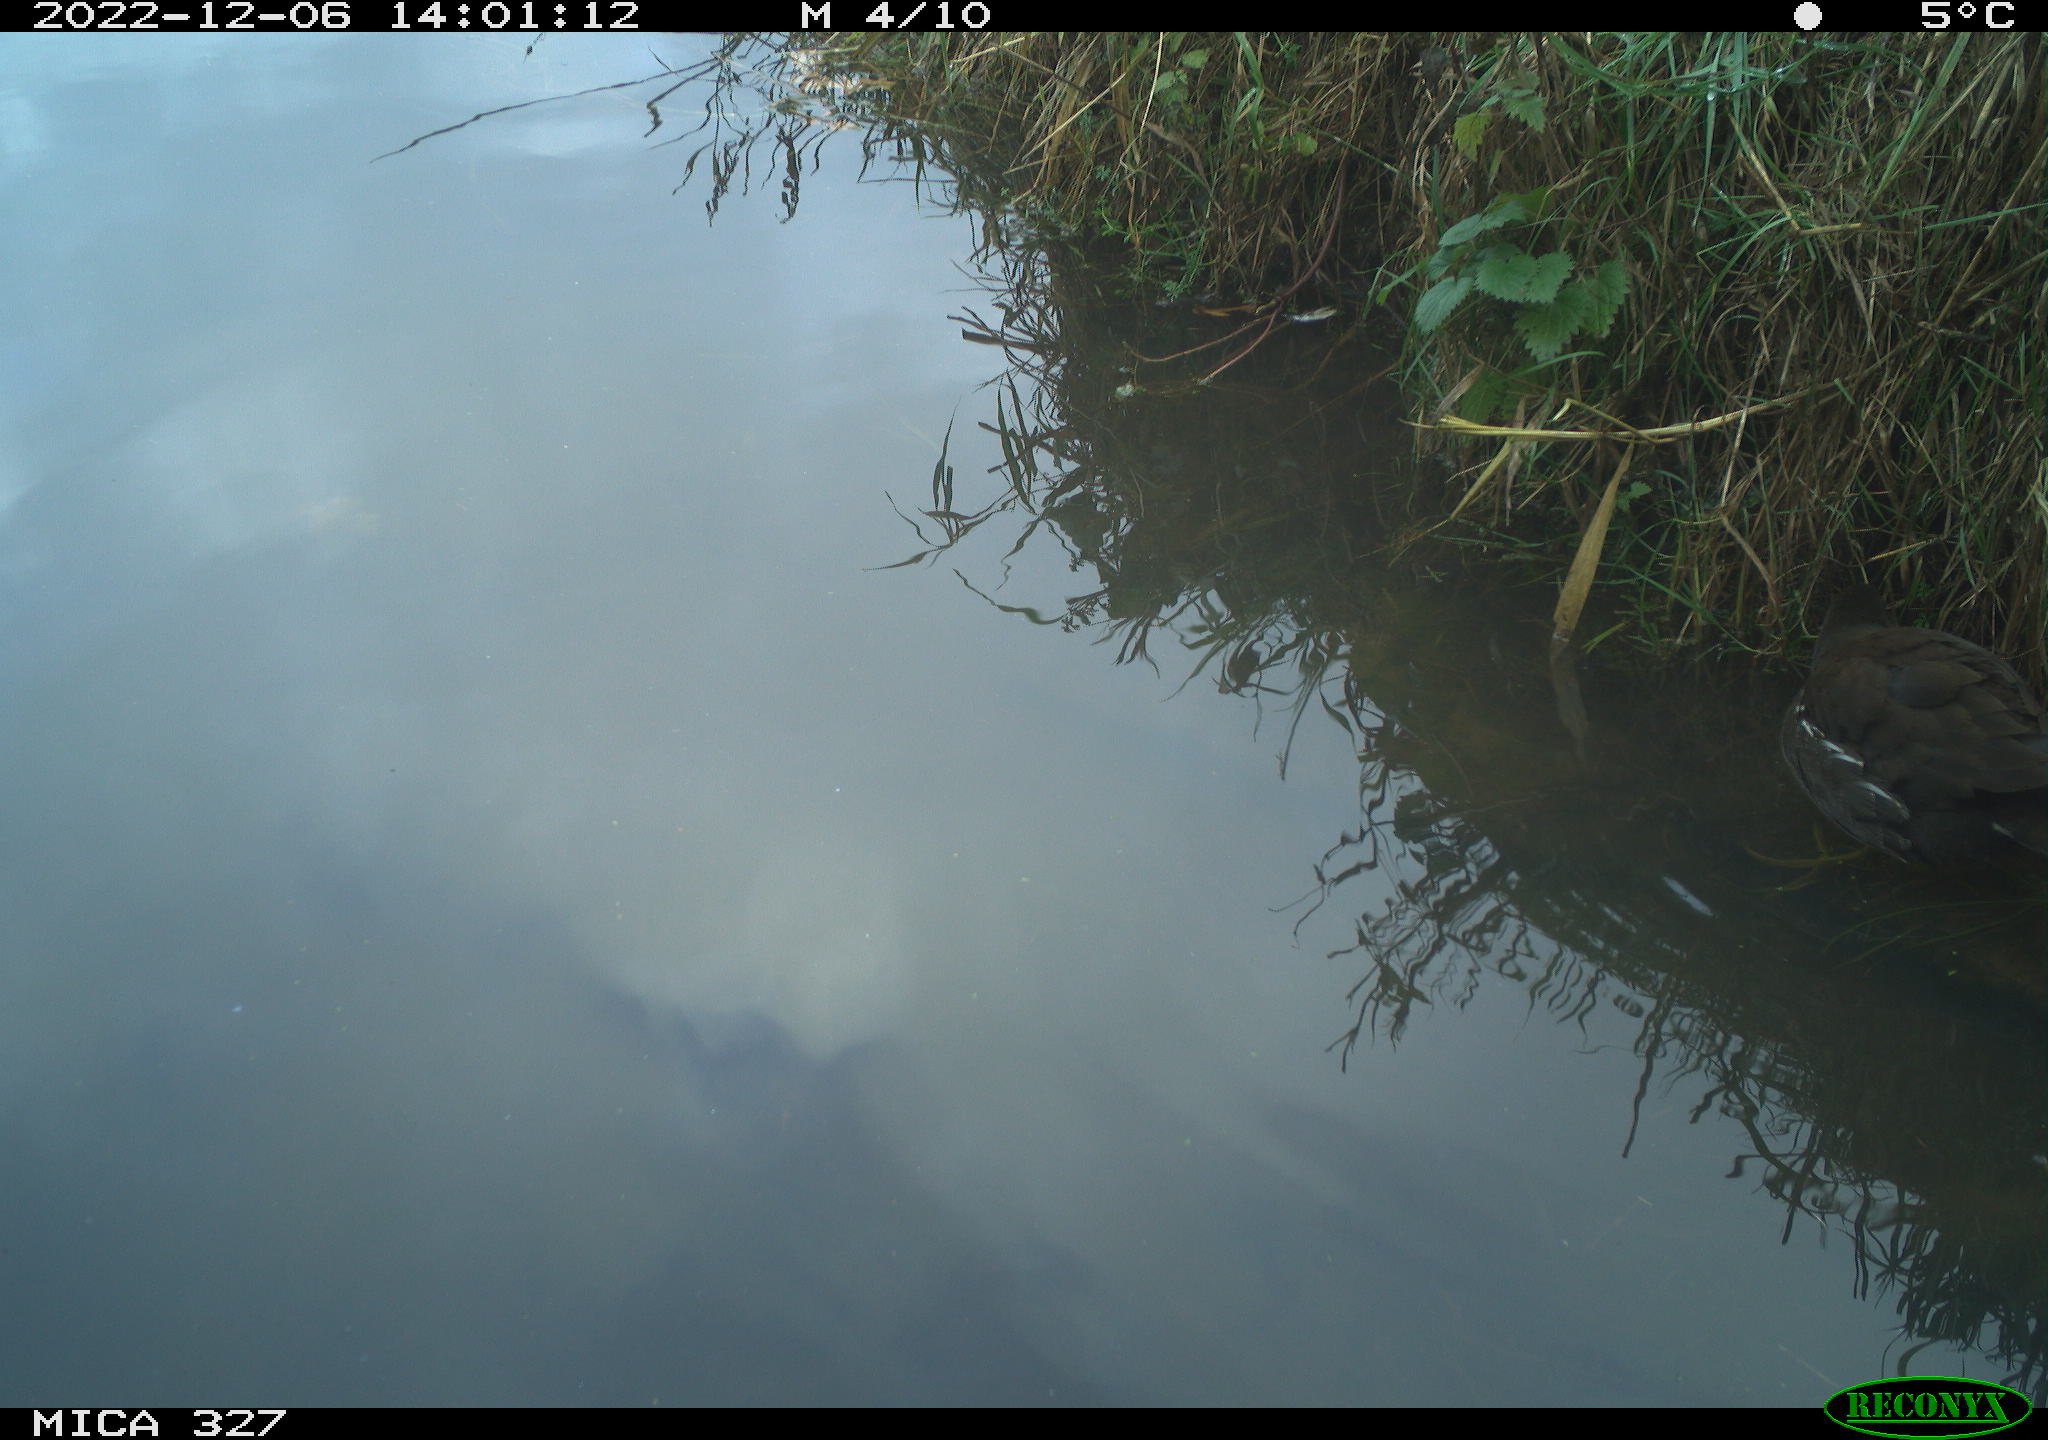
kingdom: Animalia
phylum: Chordata
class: Aves
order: Gruiformes
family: Rallidae
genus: Gallinula
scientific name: Gallinula chloropus
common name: Common moorhen
